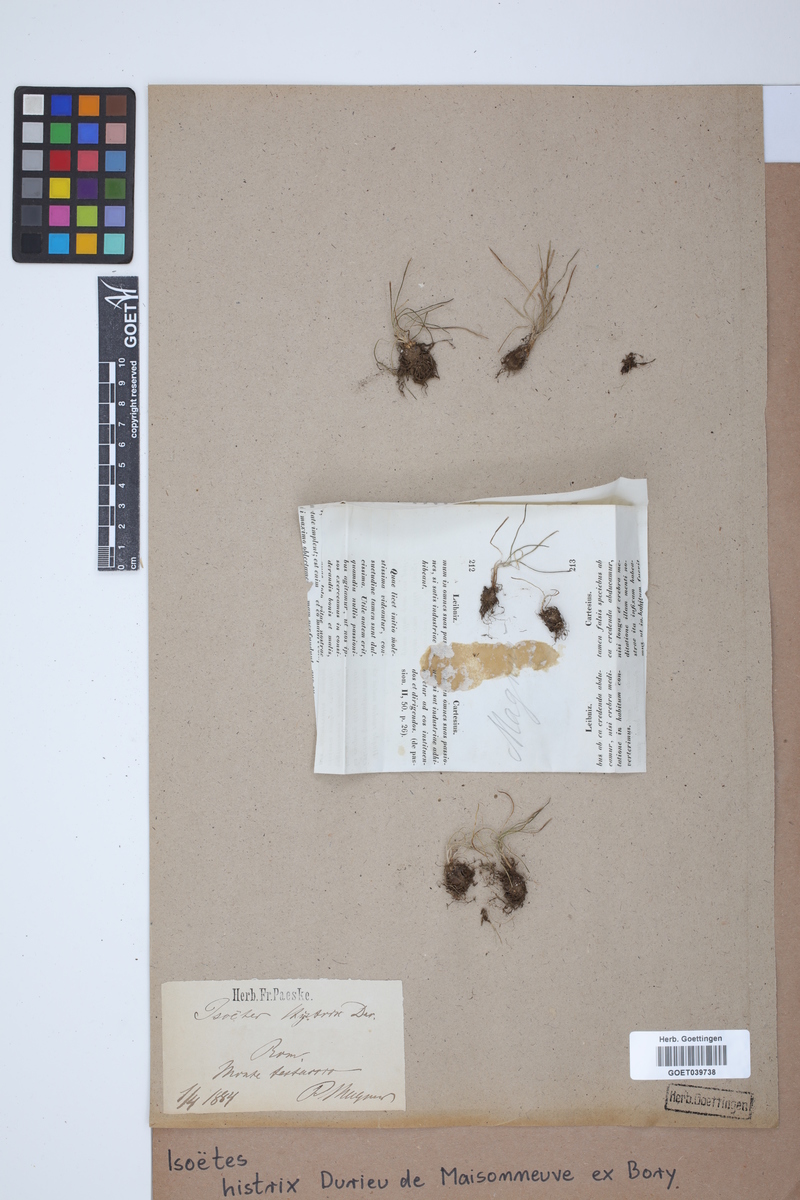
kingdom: Plantae
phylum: Tracheophyta
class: Lycopodiopsida
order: Isoetales
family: Isoetaceae
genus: Isoetes
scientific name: Isoetes histrix
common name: Land quillwort
